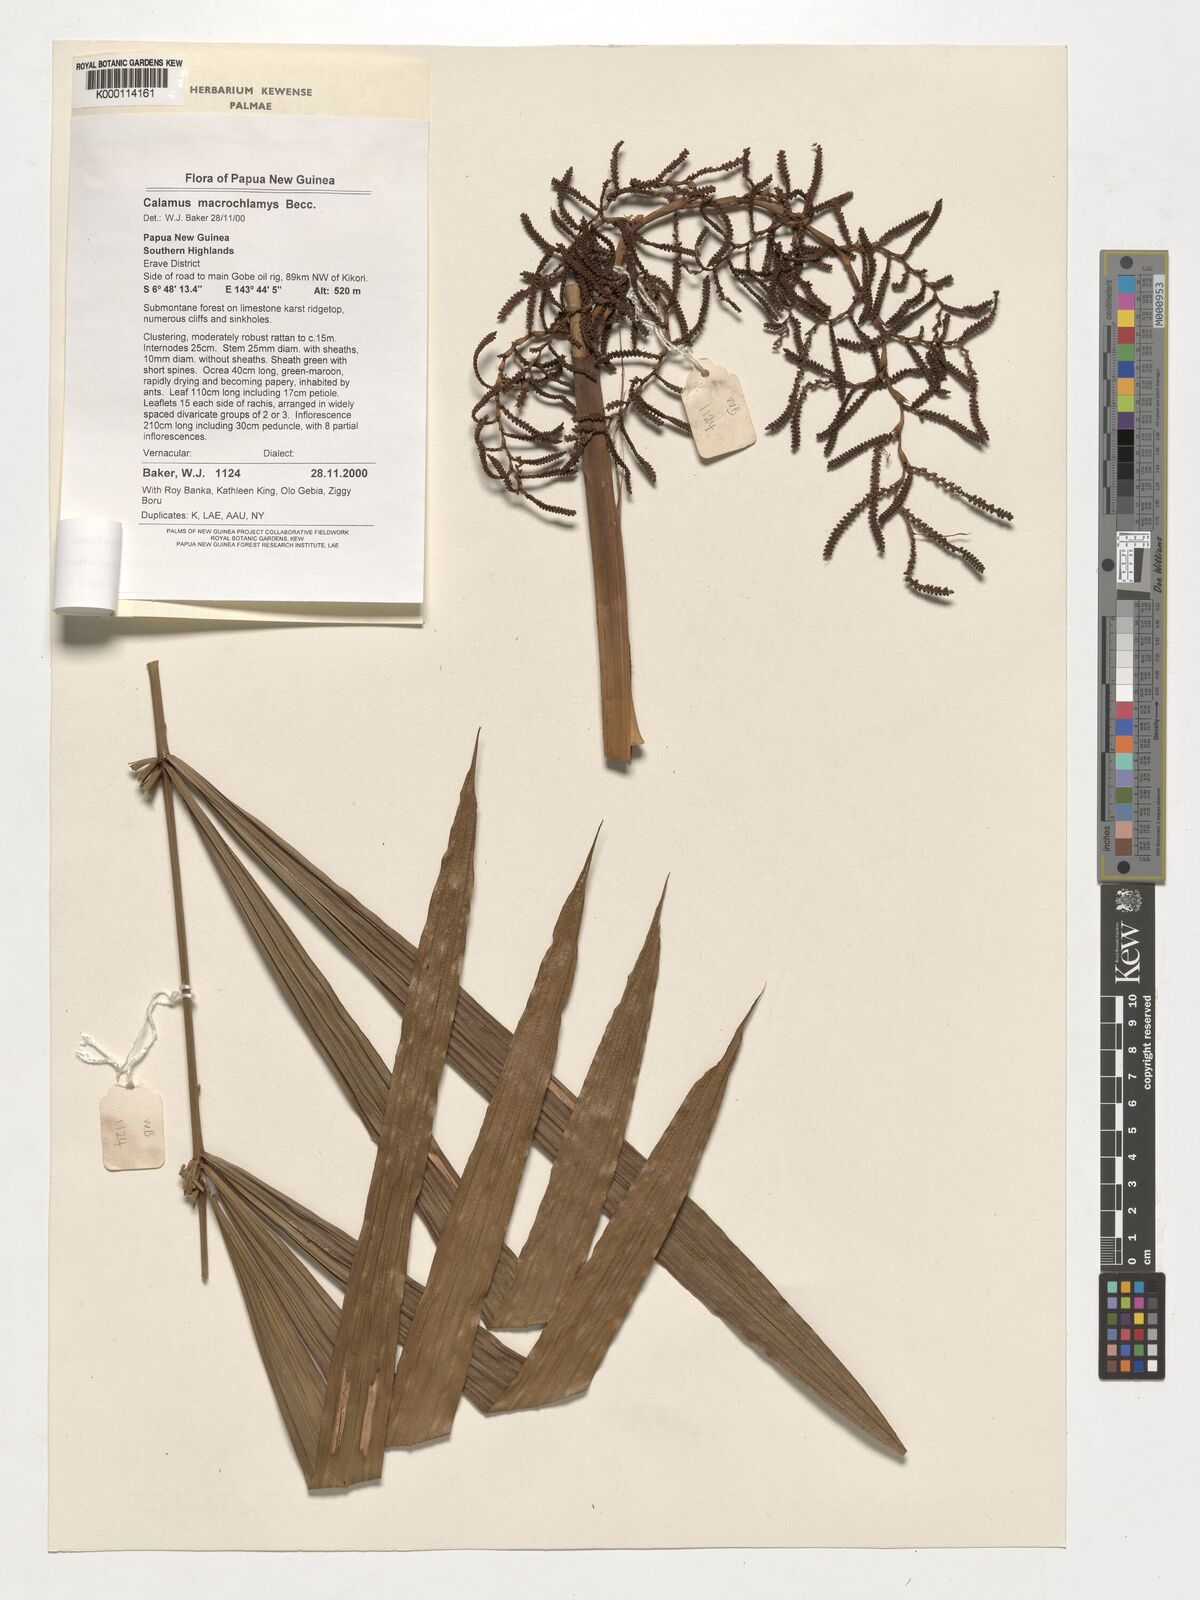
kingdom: Plantae
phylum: Tracheophyta
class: Liliopsida
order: Arecales
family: Arecaceae
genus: Calamus
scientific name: Calamus macrochlamys
